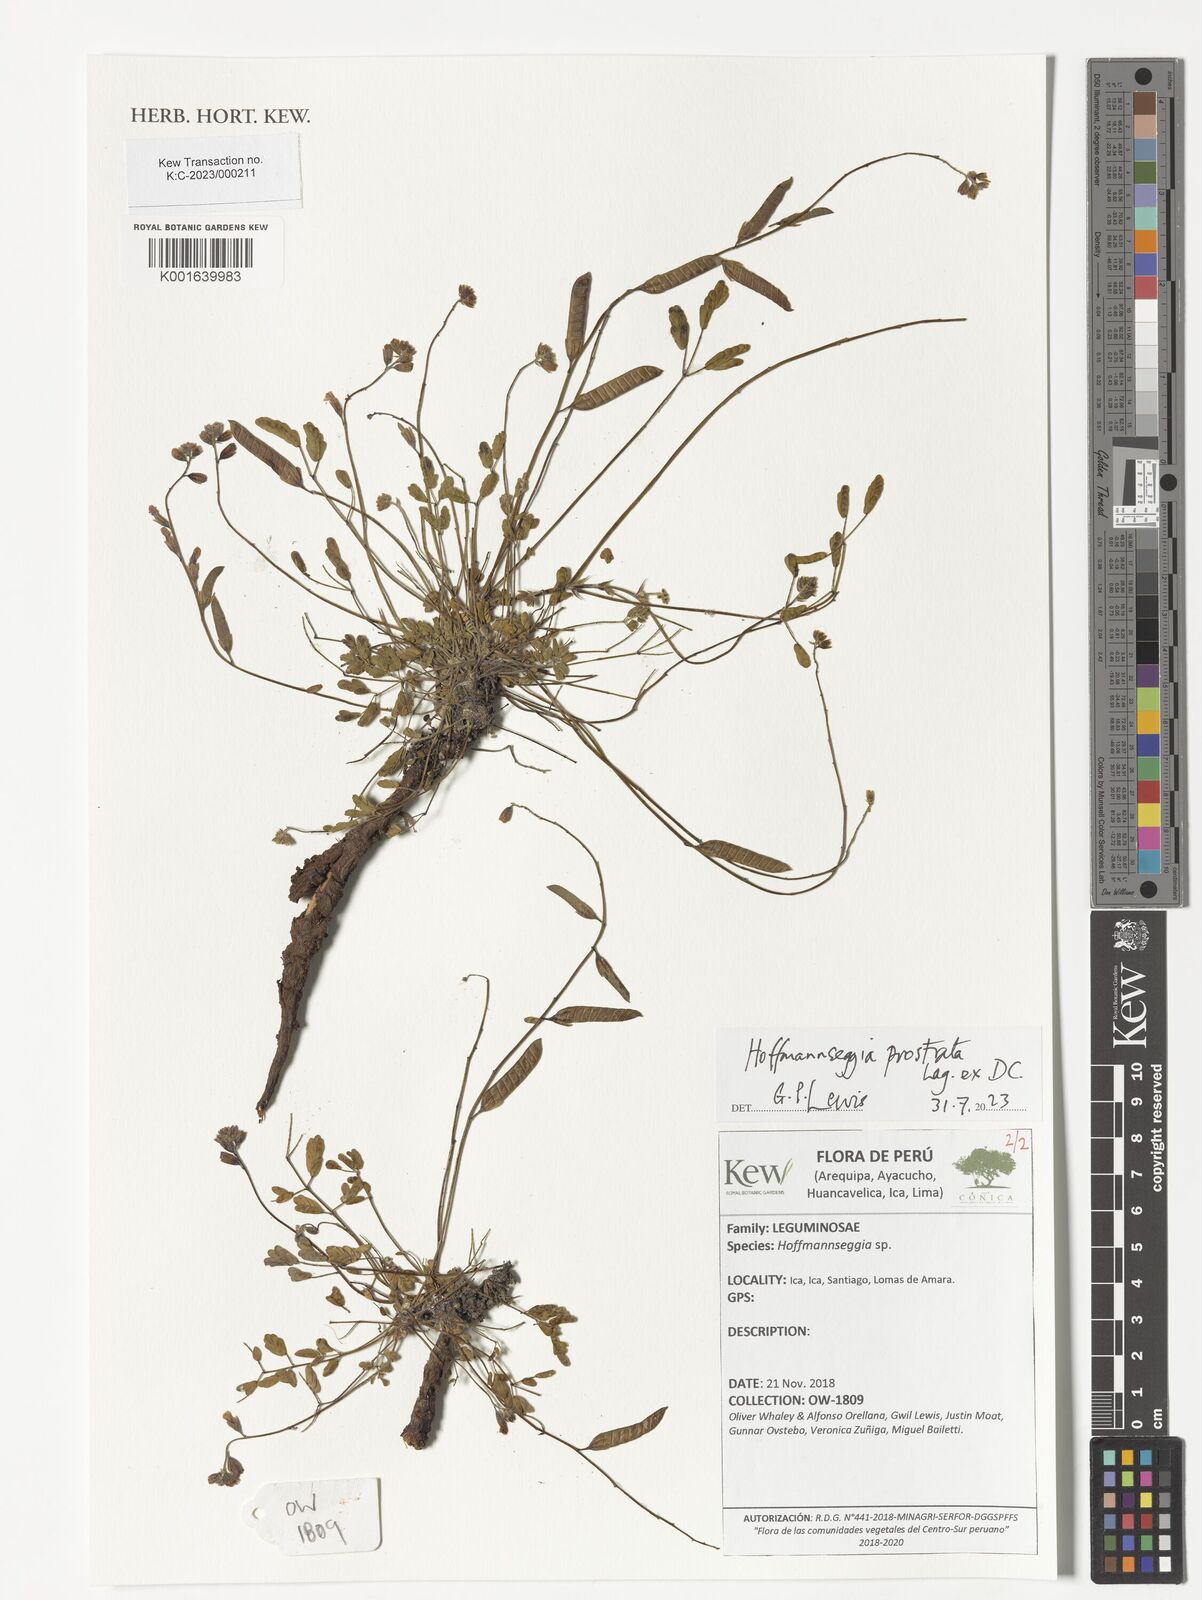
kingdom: Plantae
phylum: Tracheophyta
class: Magnoliopsida
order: Fabales
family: Fabaceae
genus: Hoffmannseggia
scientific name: Hoffmannseggia prostrata
